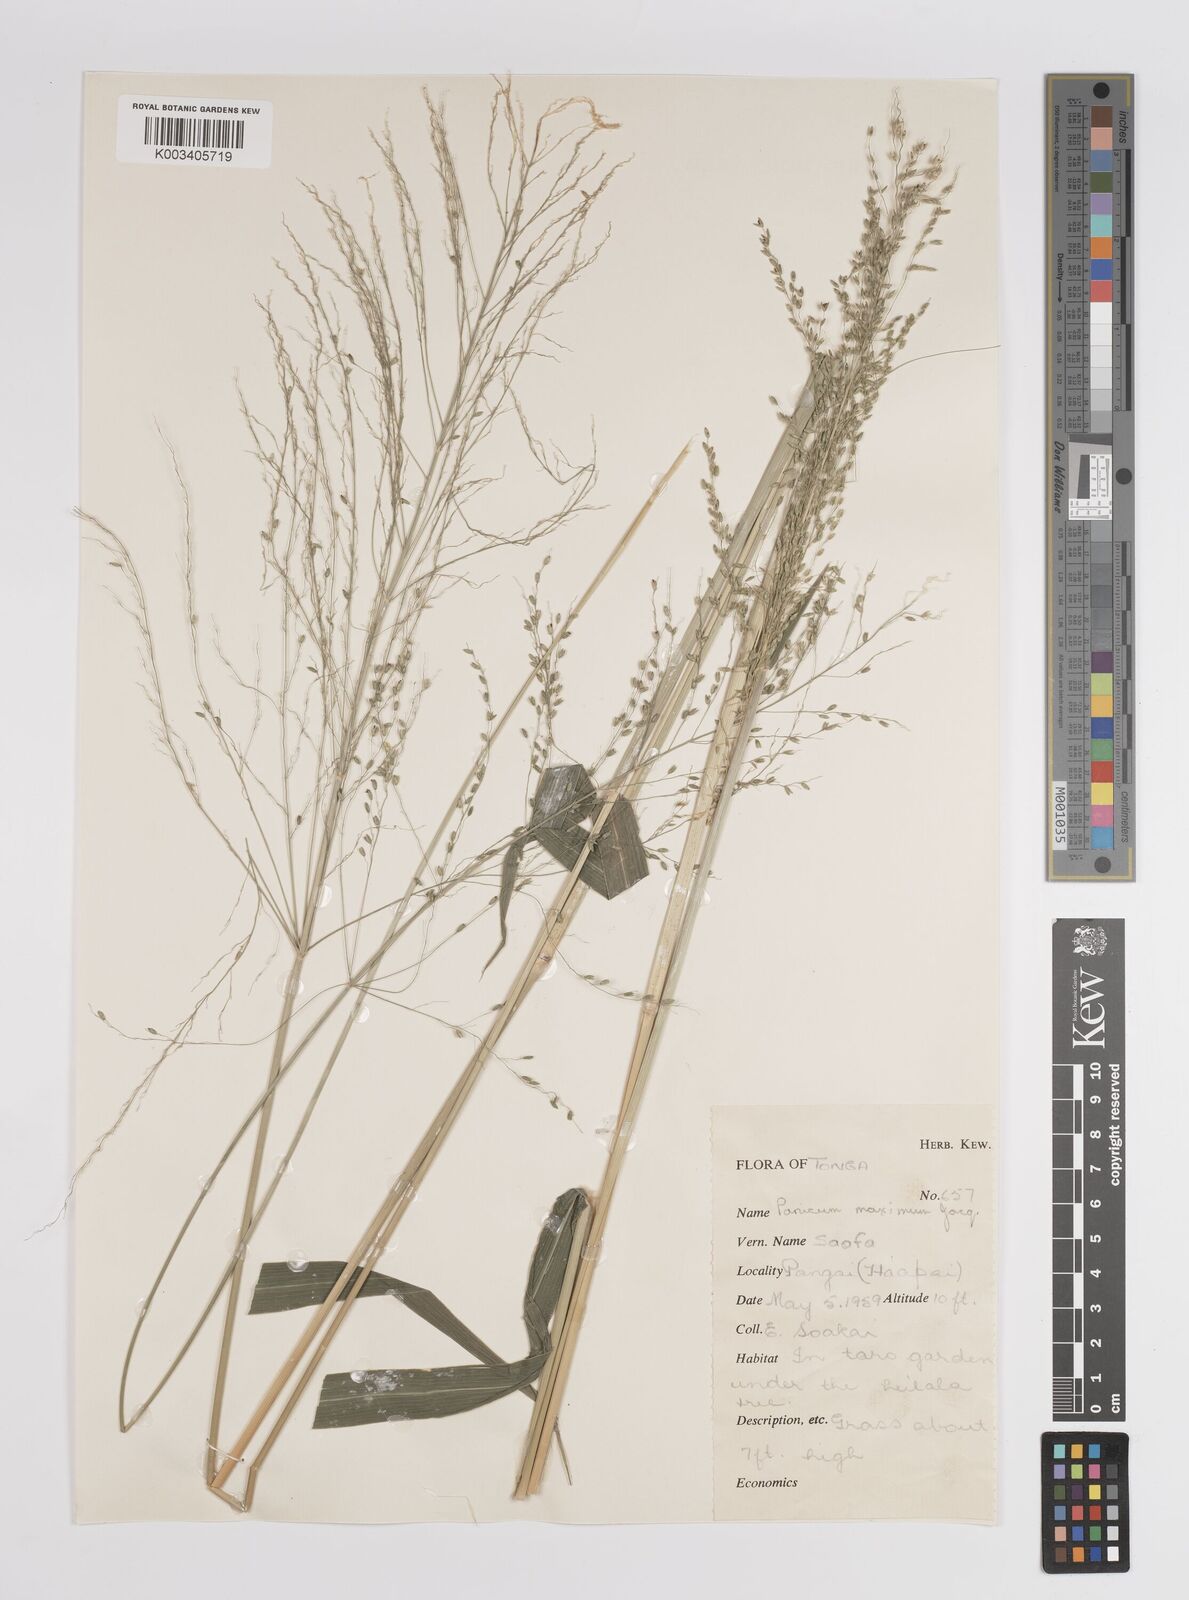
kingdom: Plantae
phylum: Tracheophyta
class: Liliopsida
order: Poales
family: Poaceae
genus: Megathyrsus
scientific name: Megathyrsus maximus
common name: Guineagrass
